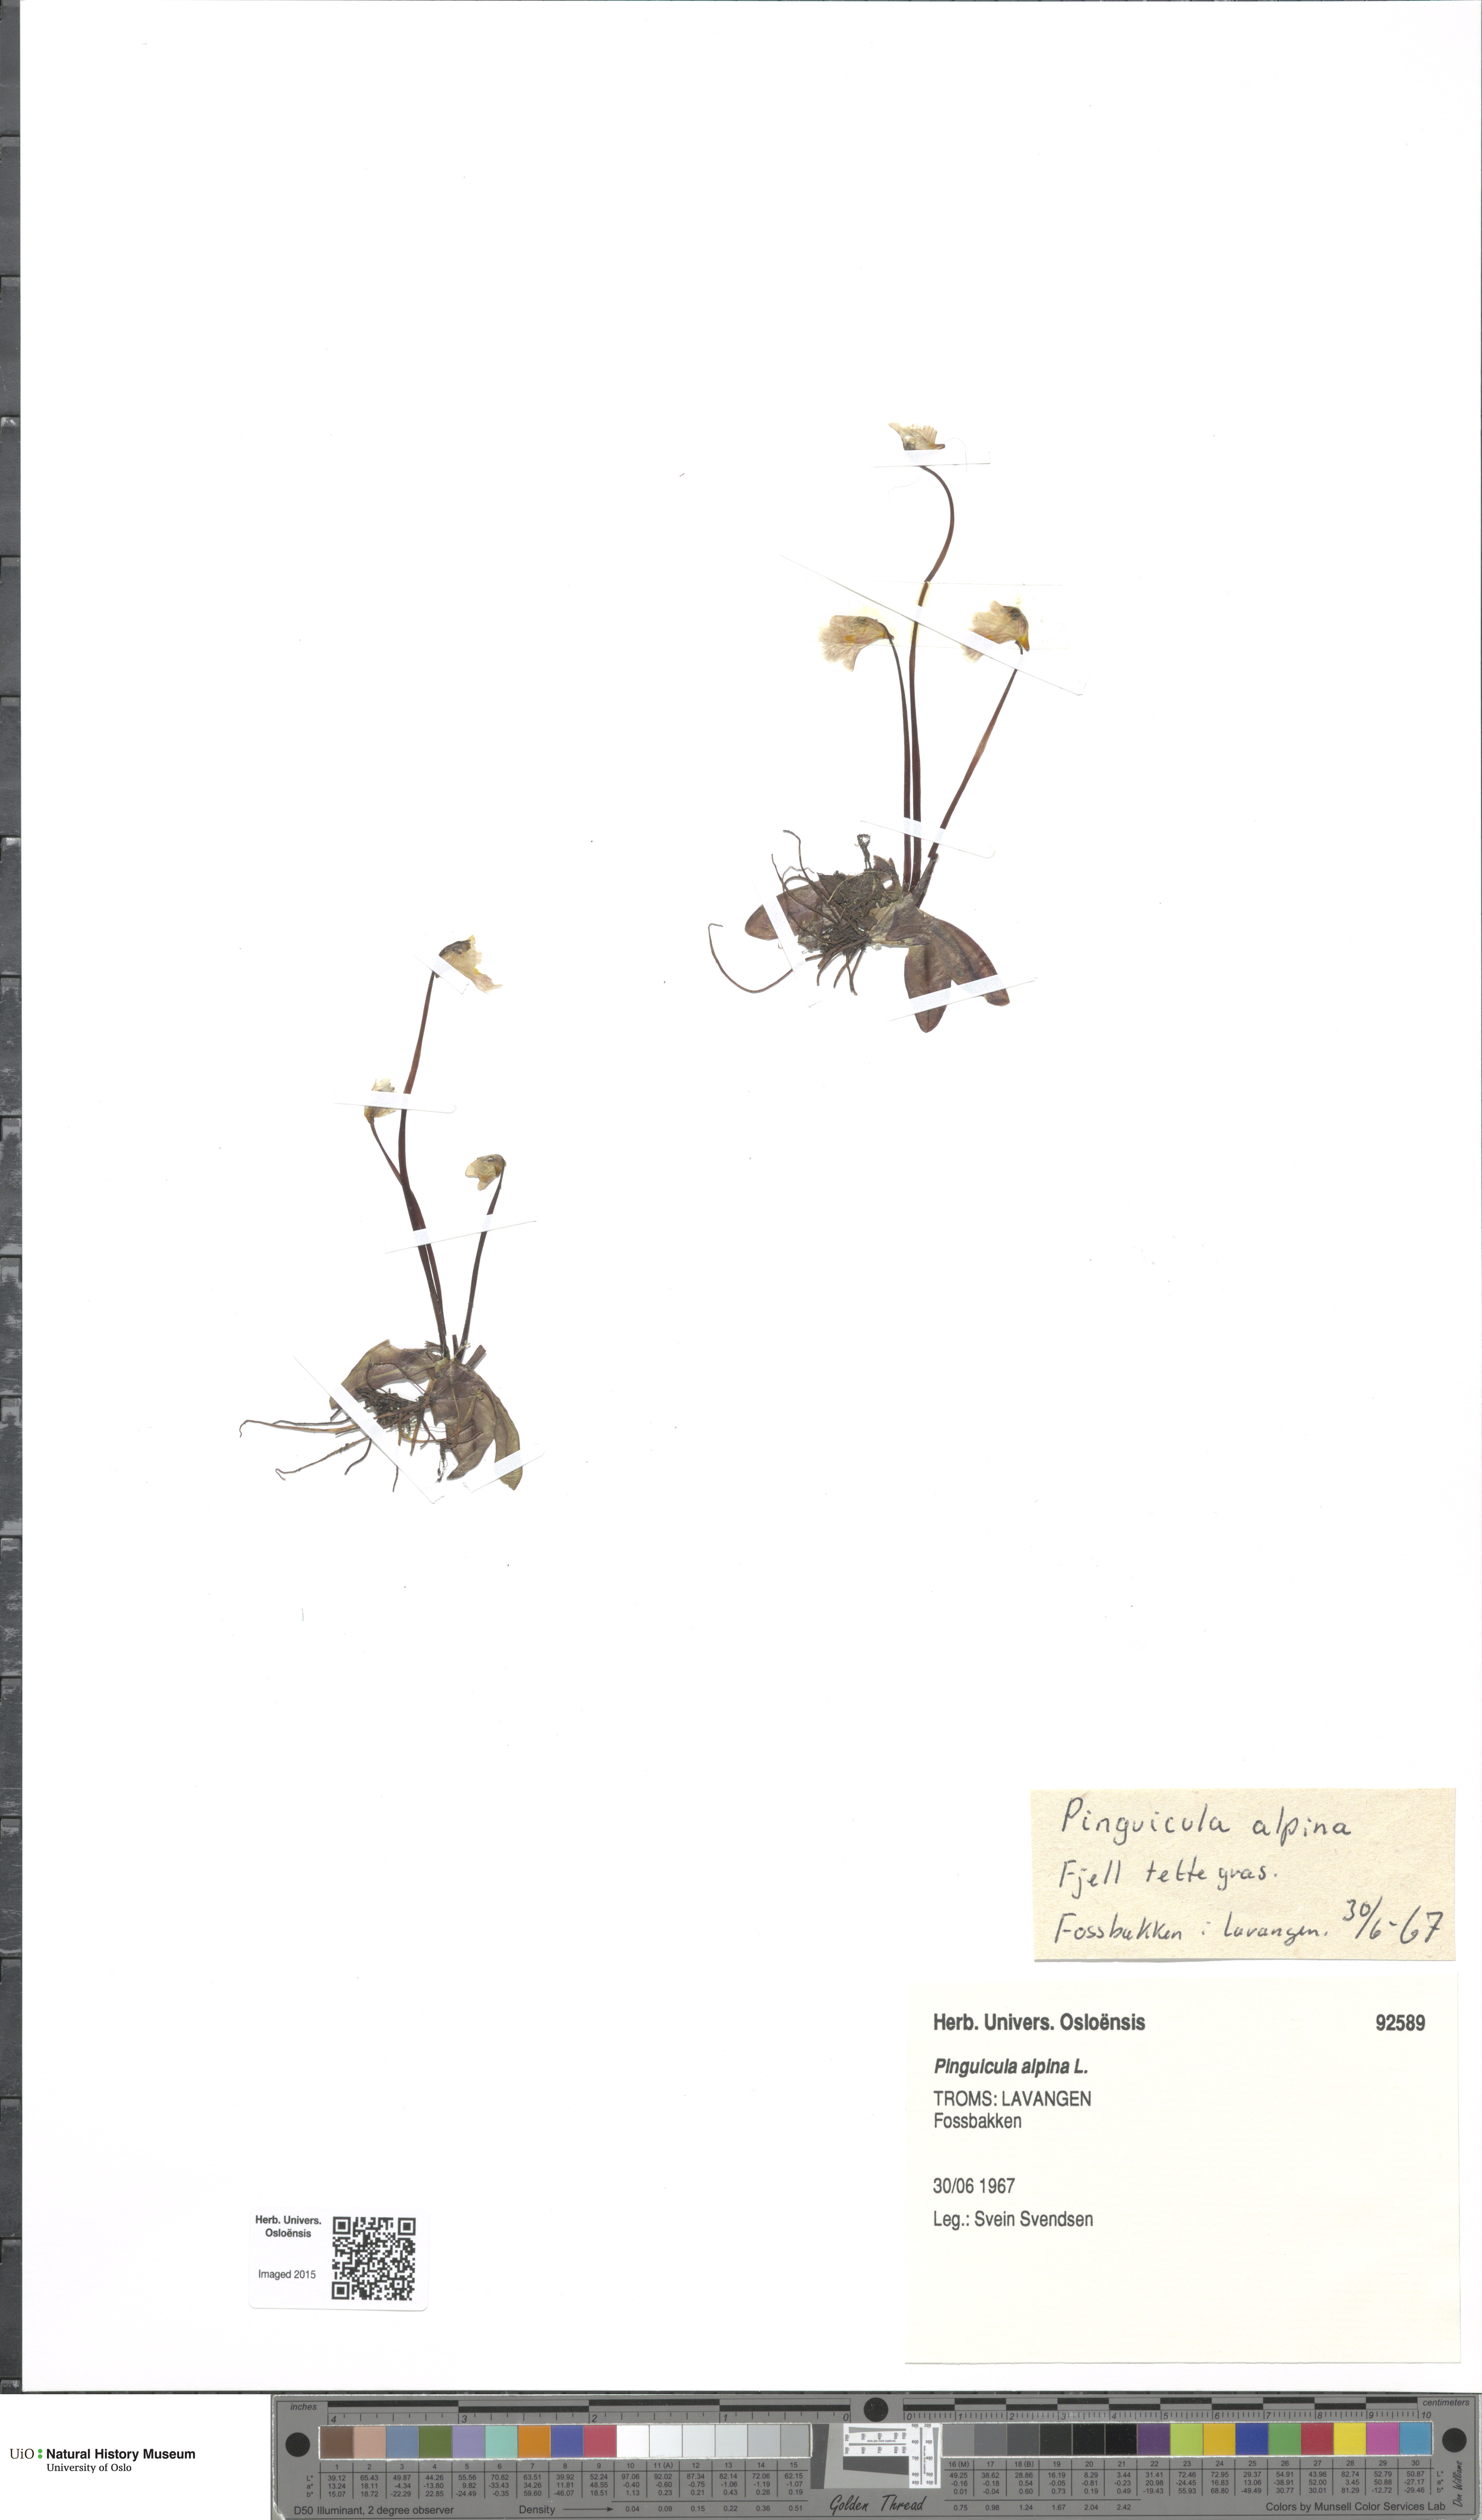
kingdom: Plantae
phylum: Tracheophyta
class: Magnoliopsida
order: Lamiales
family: Lentibulariaceae
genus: Pinguicula
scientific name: Pinguicula alpina
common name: Alpine butterwort
